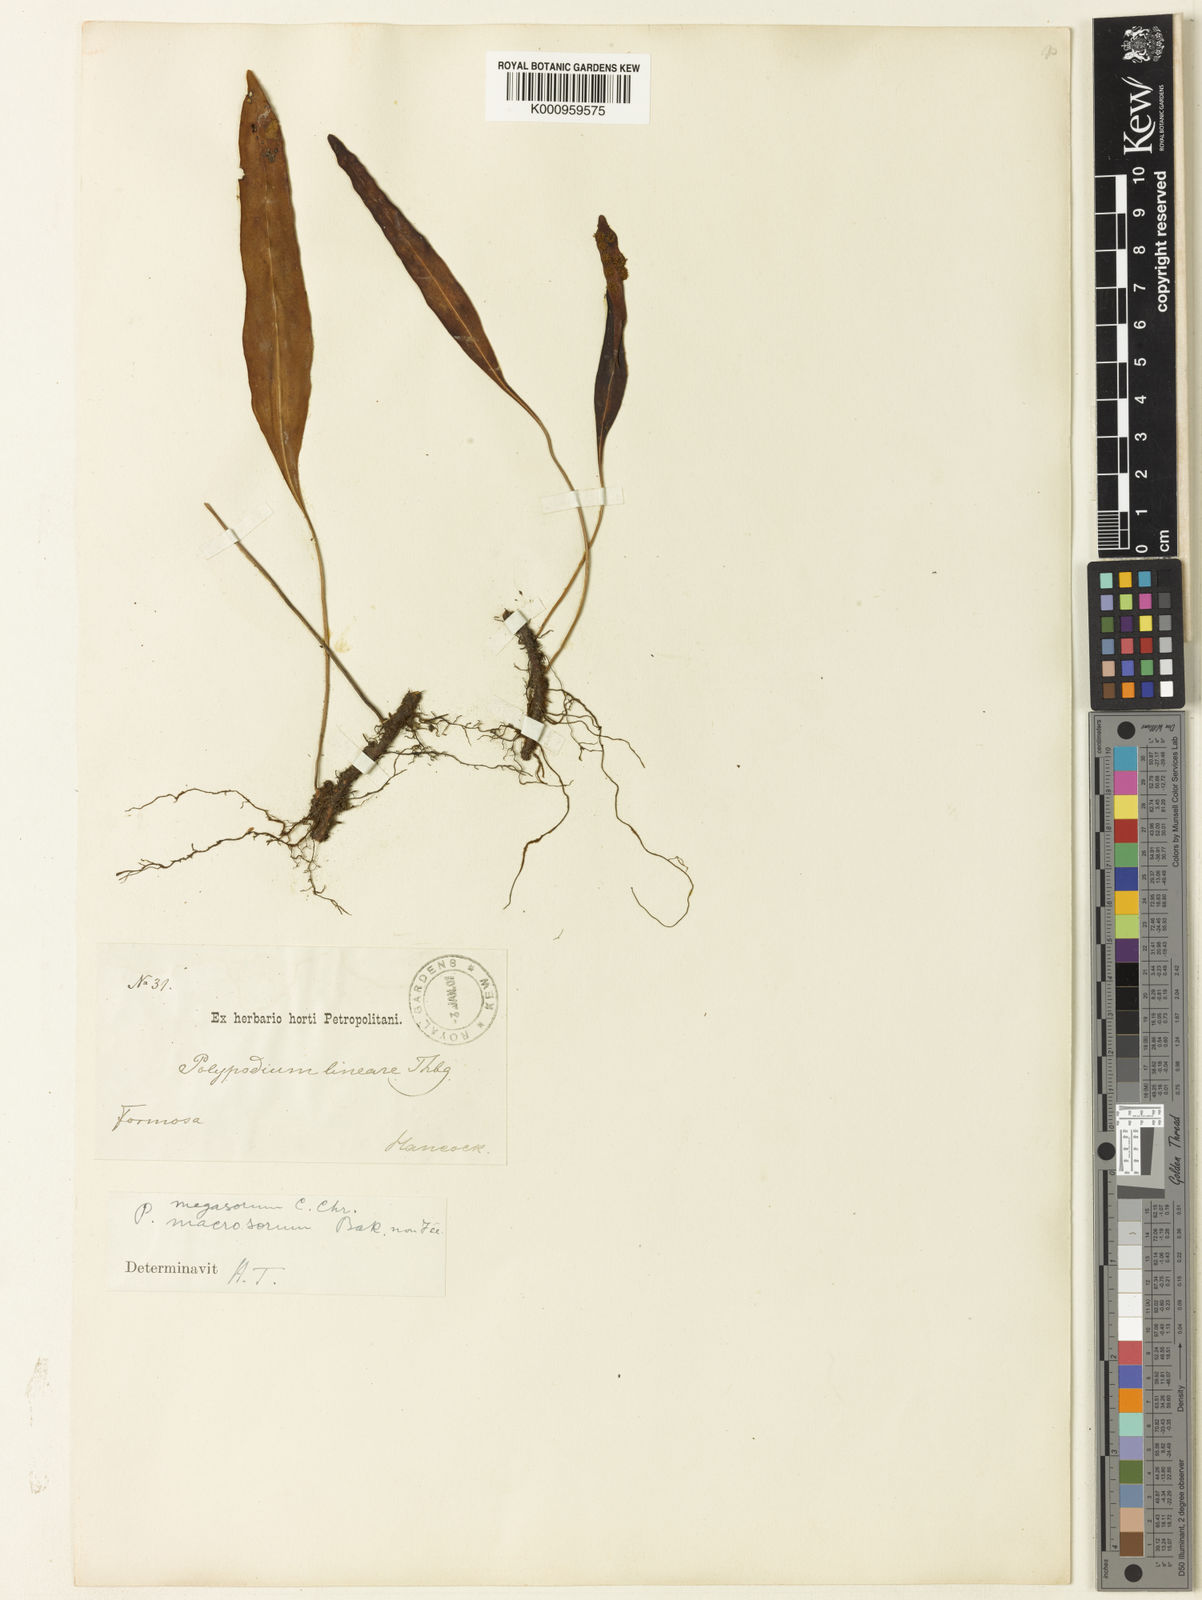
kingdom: Plantae
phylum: Tracheophyta
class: Polypodiopsida
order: Polypodiales
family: Polypodiaceae
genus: Lepisorus
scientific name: Lepisorus megasorus
